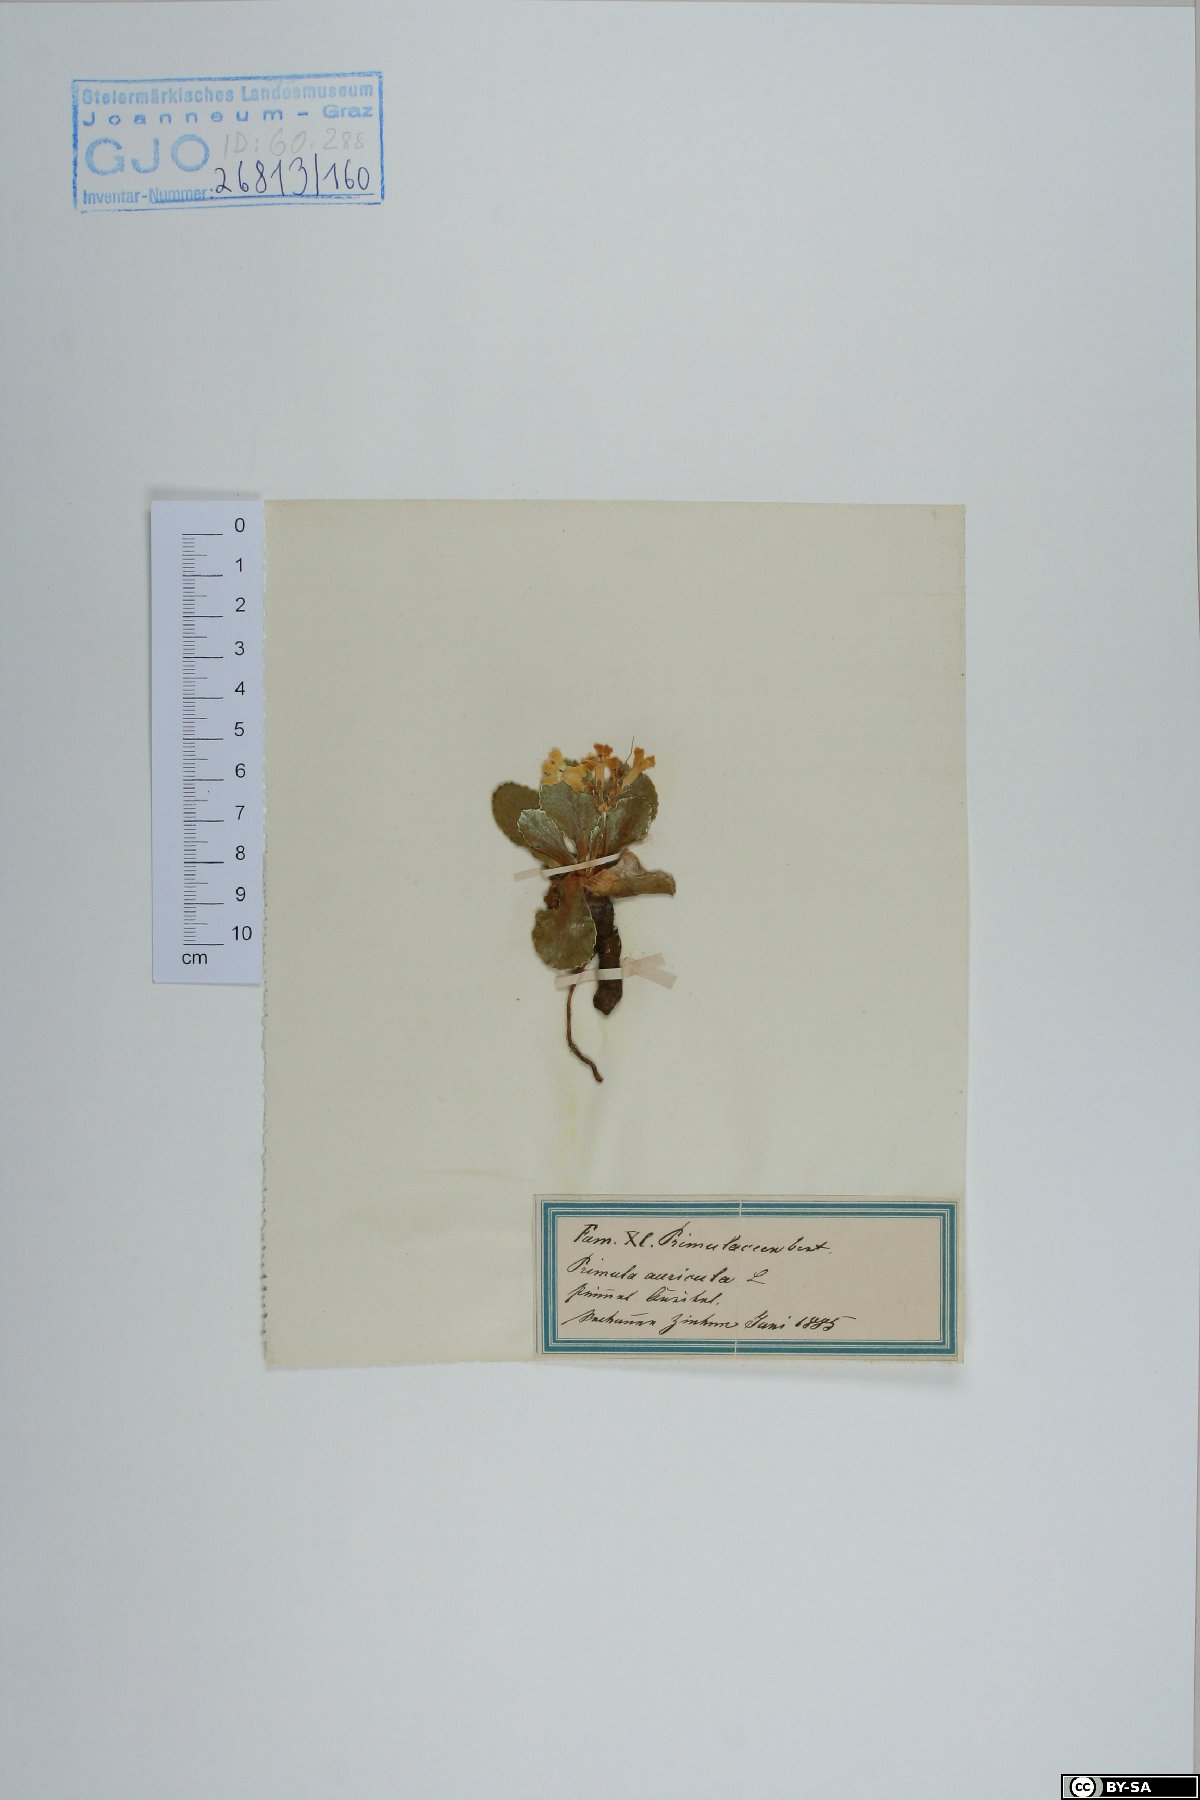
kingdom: Plantae
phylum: Tracheophyta
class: Magnoliopsida
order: Ericales
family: Primulaceae
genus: Primula
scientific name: Primula auricula
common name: Auricula
